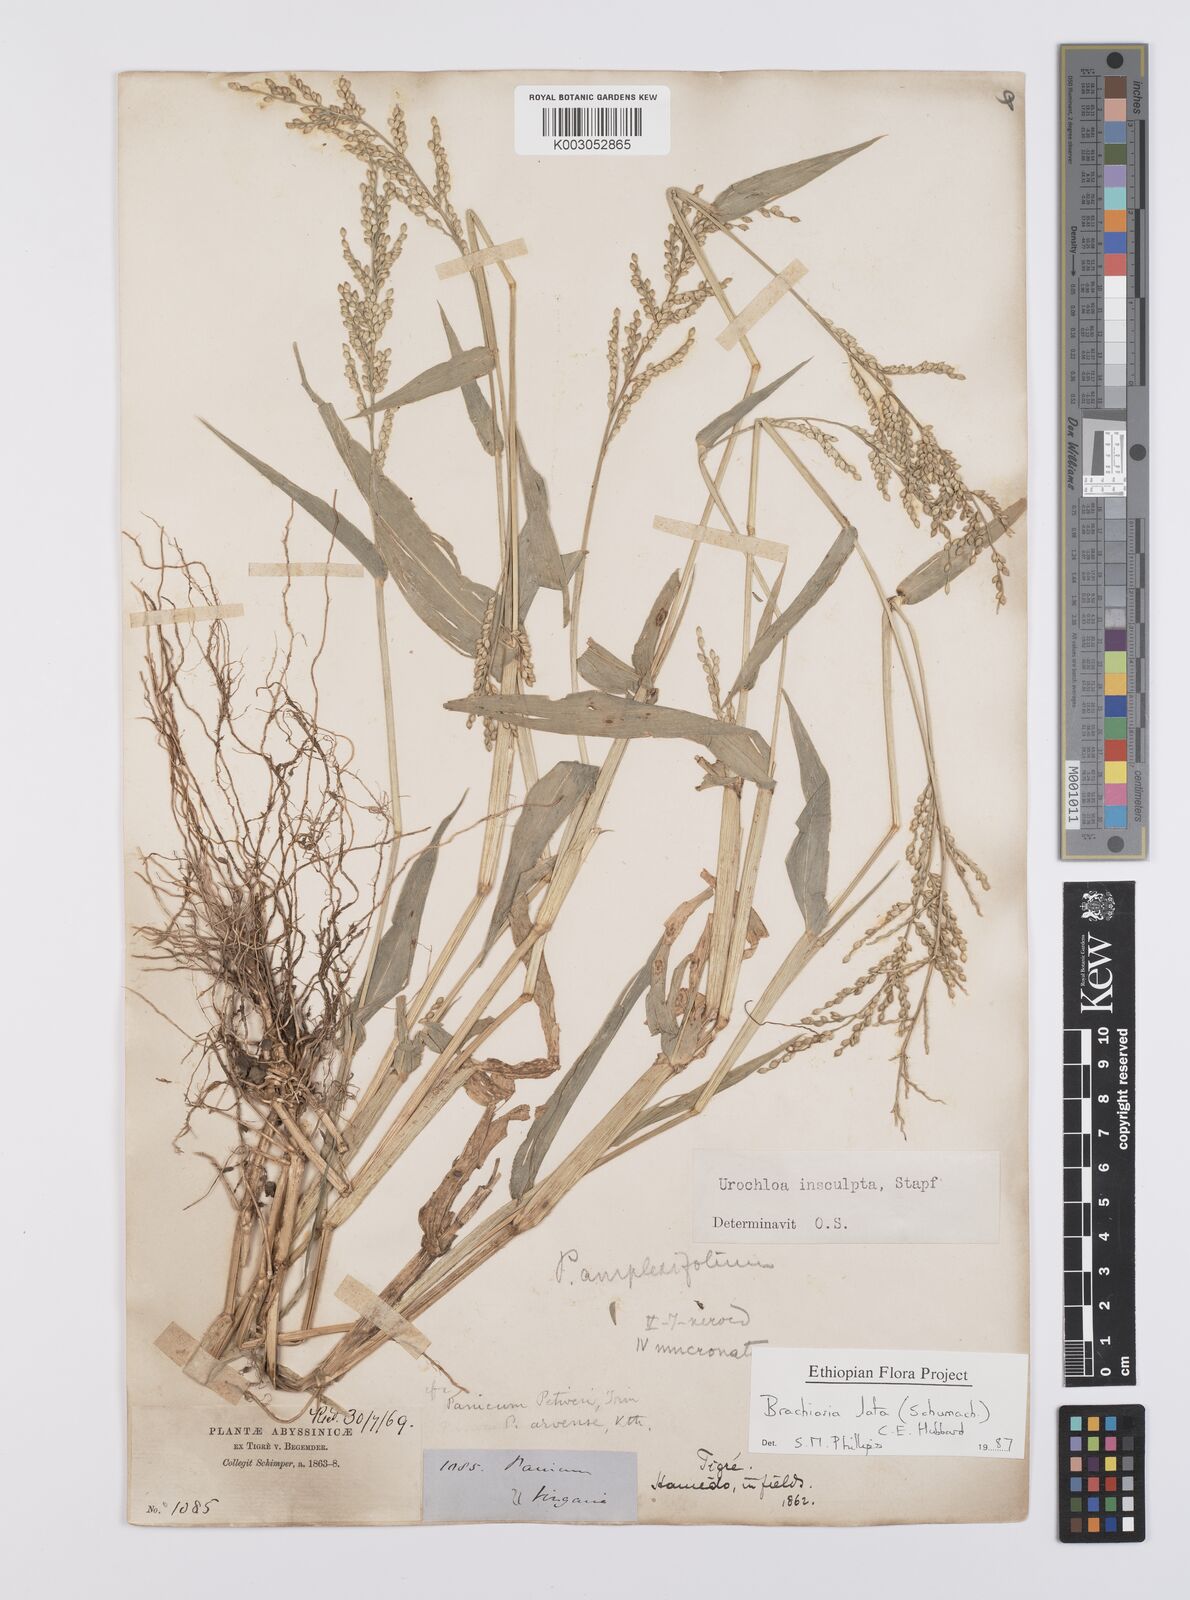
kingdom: Plantae
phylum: Tracheophyta
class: Liliopsida
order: Poales
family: Poaceae
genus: Urochloa
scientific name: Urochloa lata
